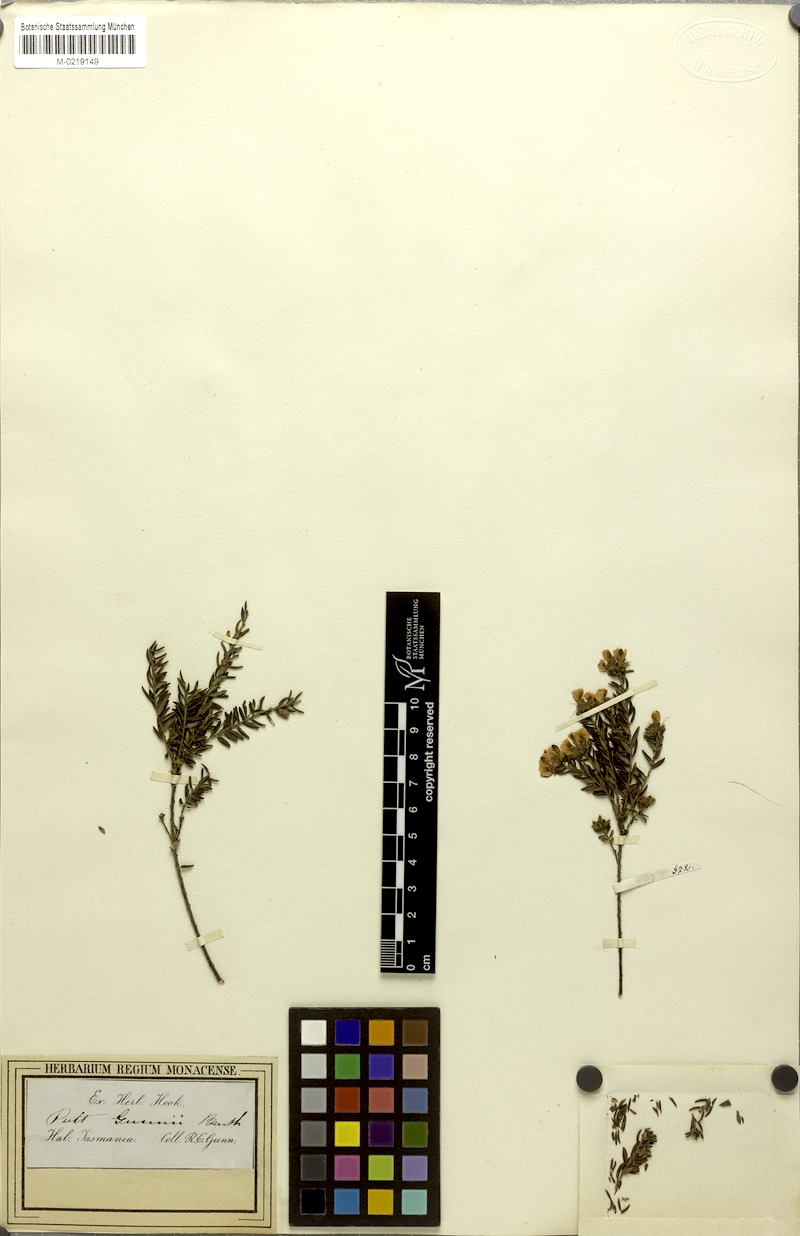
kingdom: Plantae
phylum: Tracheophyta
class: Magnoliopsida
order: Fabales
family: Fabaceae
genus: Pultenaea
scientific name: Pultenaea gunnii
